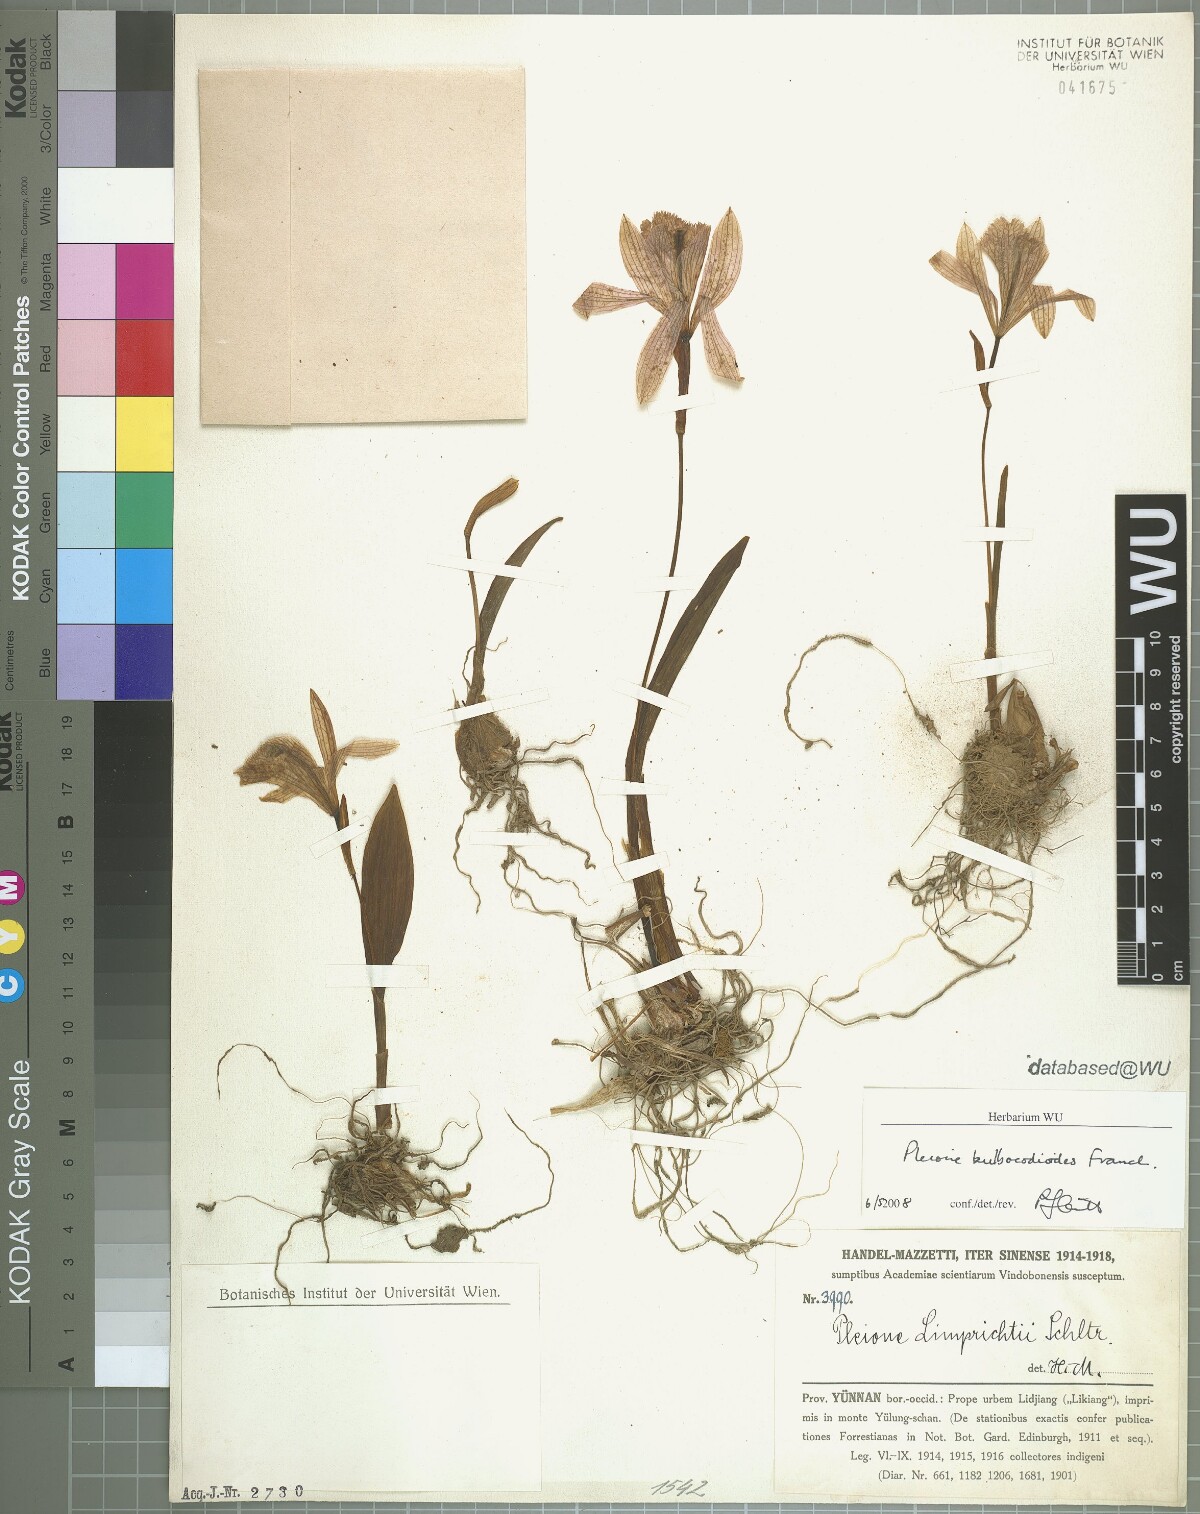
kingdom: Plantae
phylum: Tracheophyta
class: Liliopsida
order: Asparagales
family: Orchidaceae
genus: Pleione
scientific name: Pleione bulbocodioides
